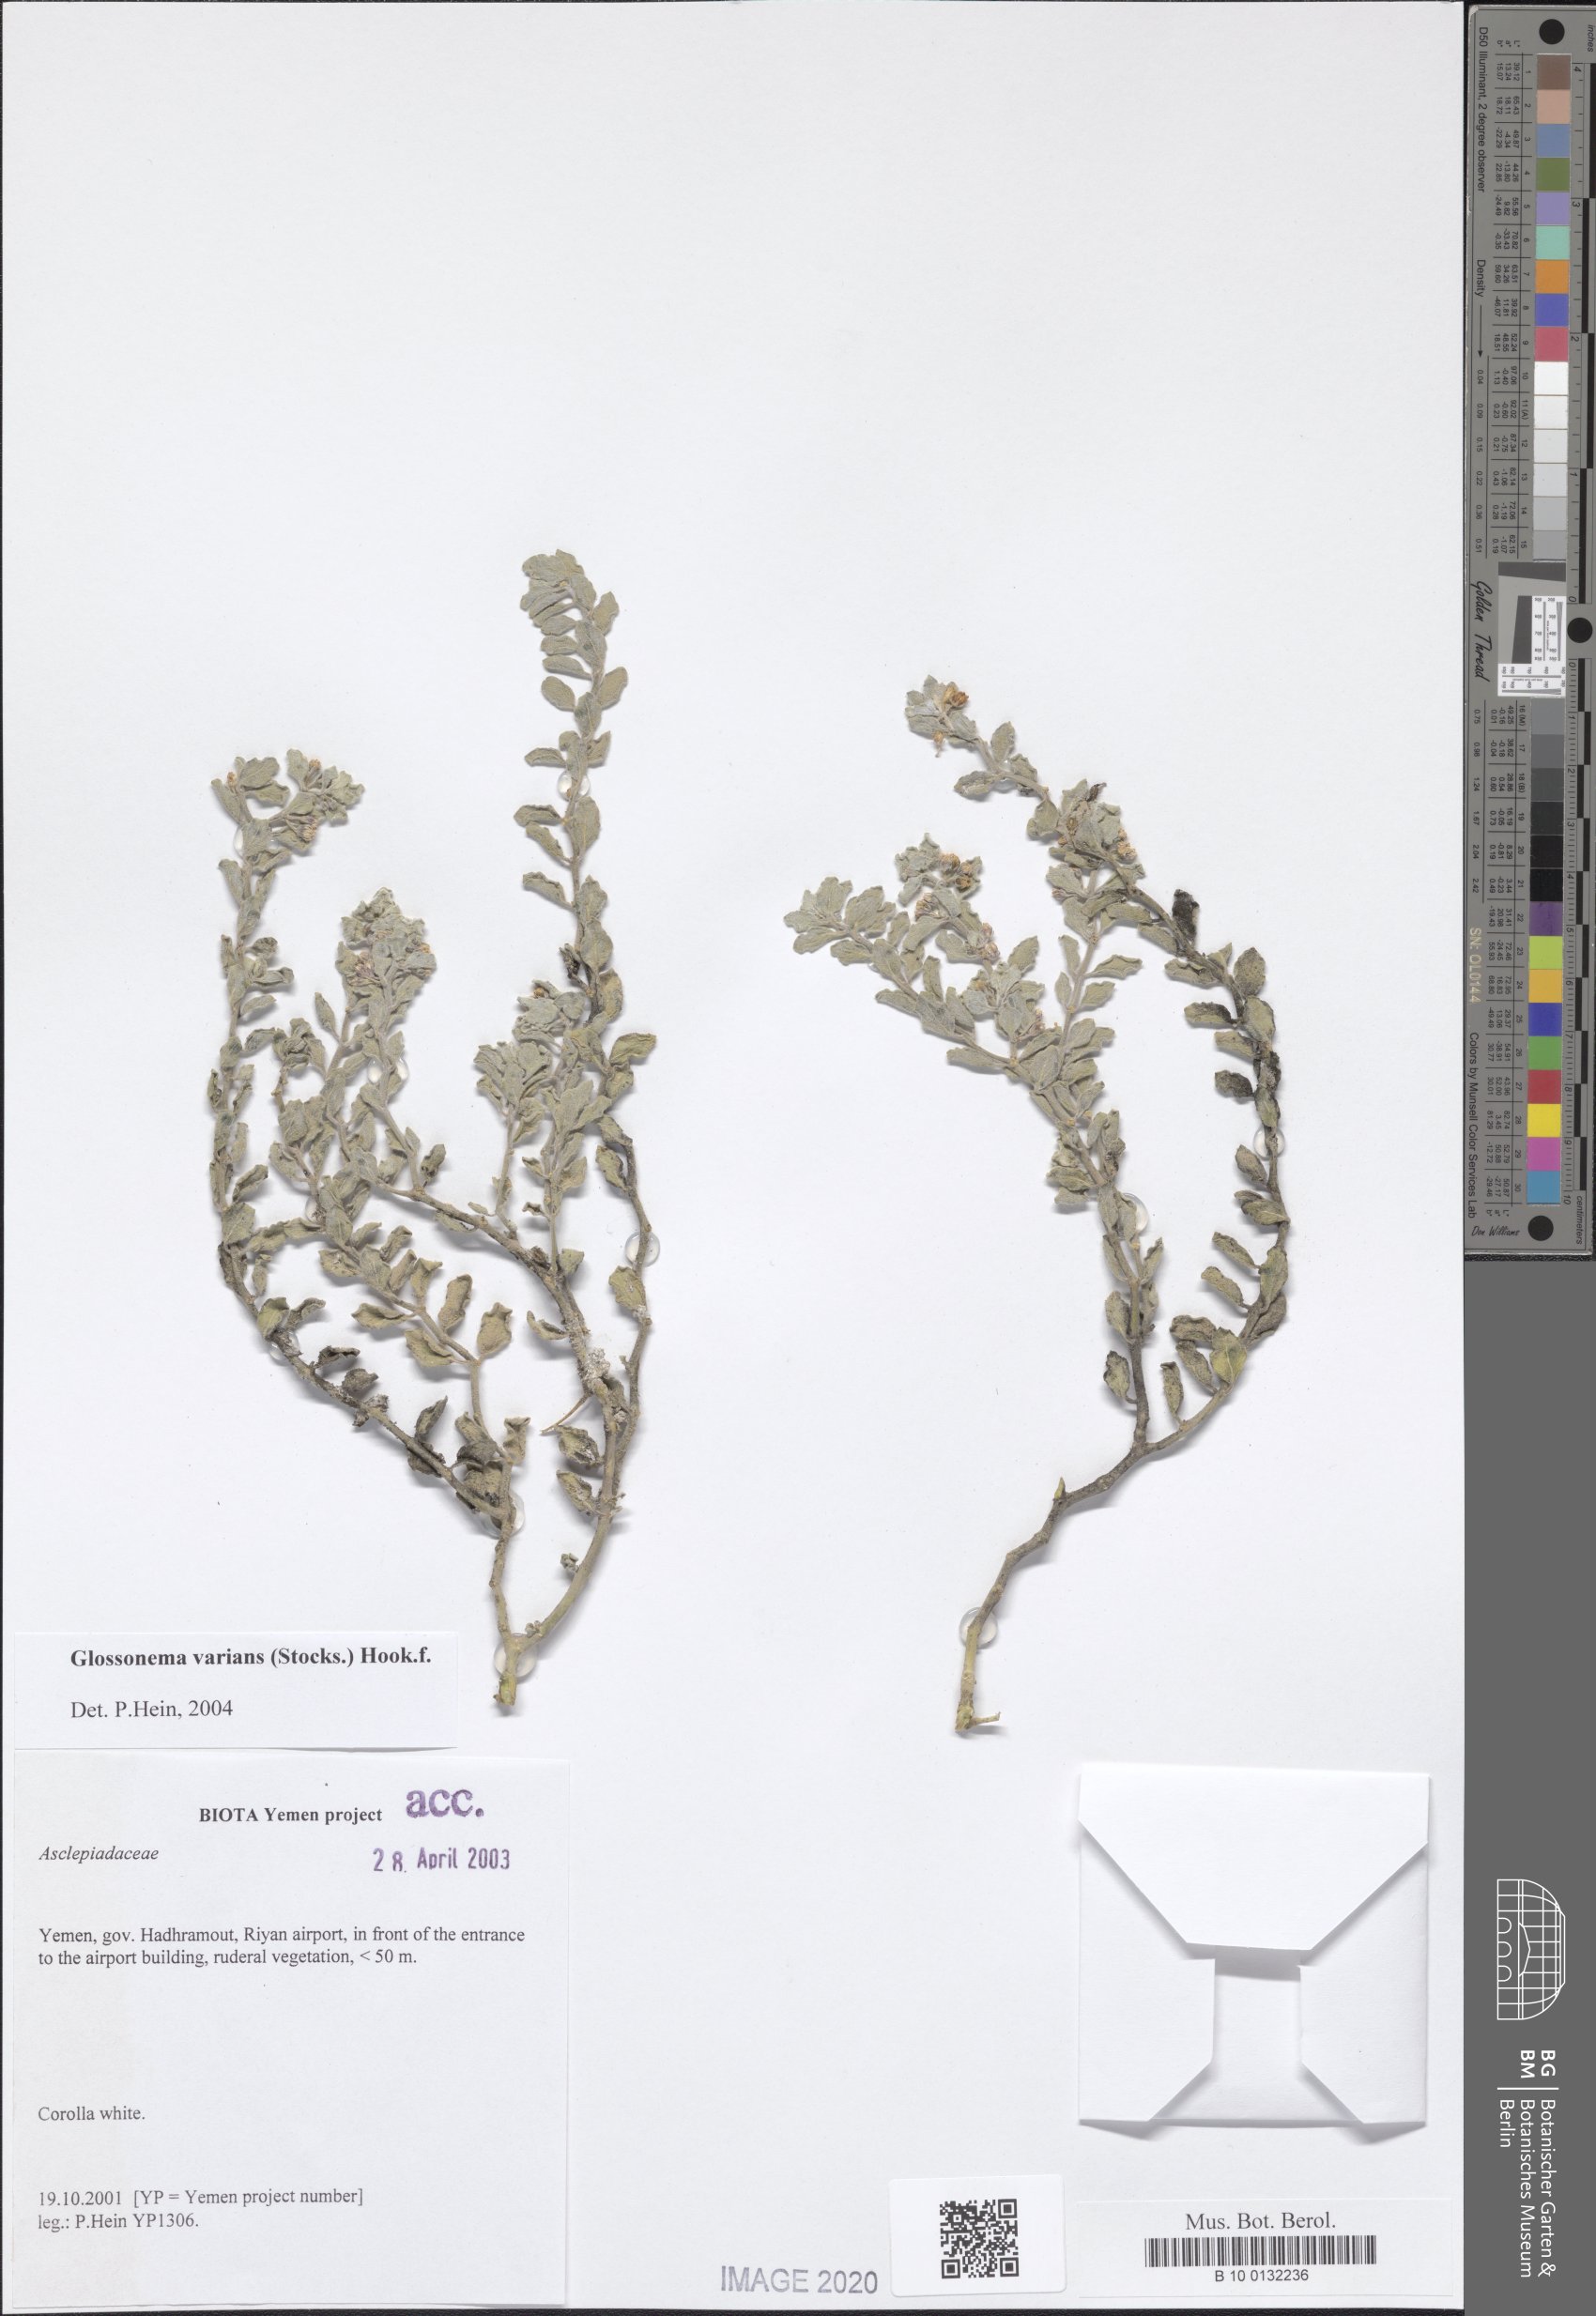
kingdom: Plantae
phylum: Tracheophyta
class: Magnoliopsida
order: Gentianales
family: Apocynaceae
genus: Cynanchum
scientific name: Cynanchum varians
